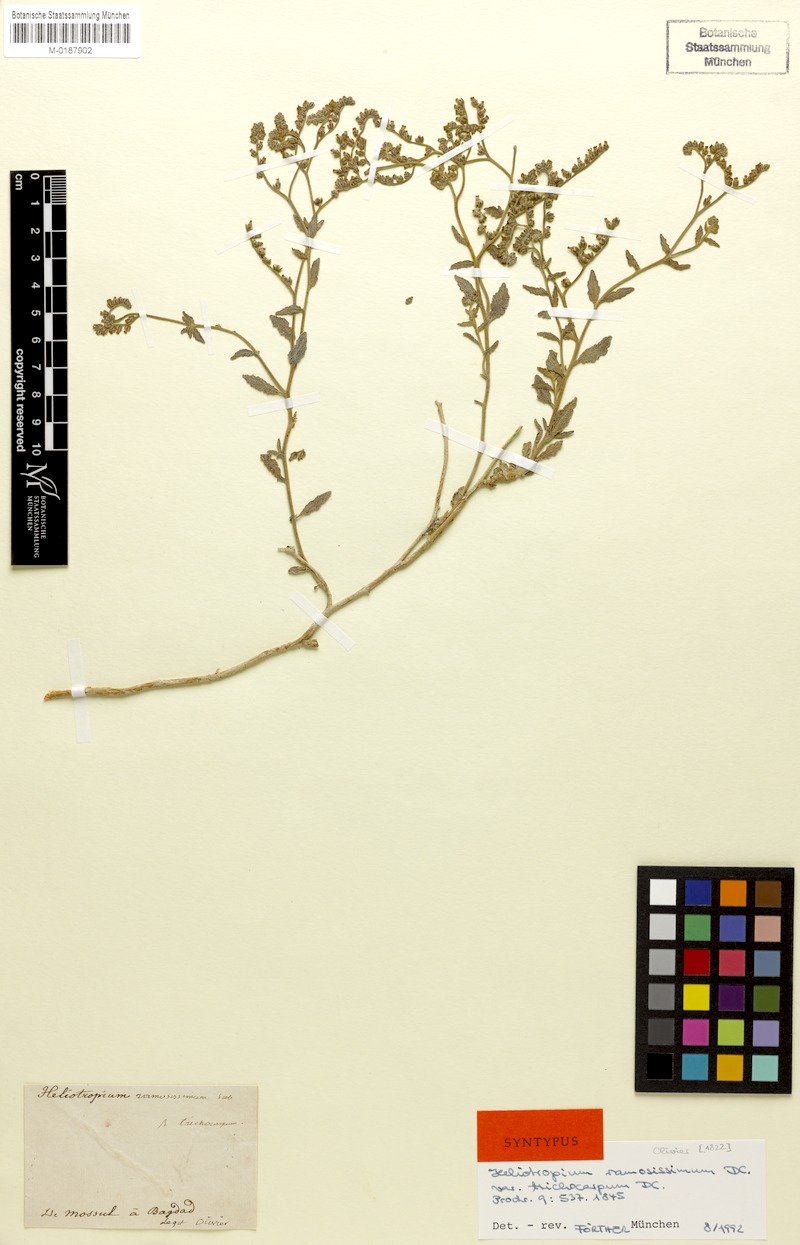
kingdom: Plantae
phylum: Tracheophyta
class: Magnoliopsida
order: Boraginales
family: Heliotropiaceae
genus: Heliotropium
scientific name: Heliotropium bacciferum
